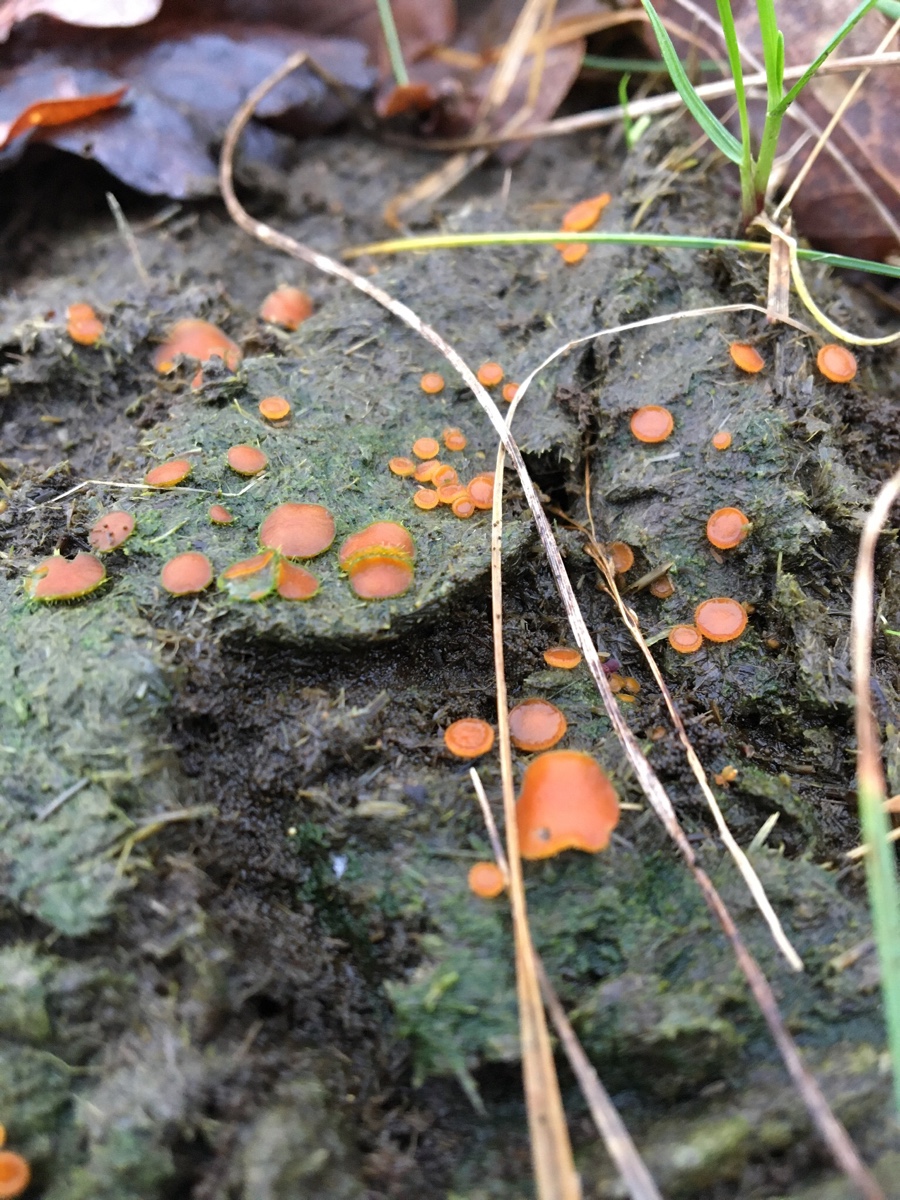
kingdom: Fungi
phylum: Ascomycota
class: Pezizomycetes
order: Pezizales
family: Pyronemataceae
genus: Cheilymenia
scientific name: Cheilymenia
